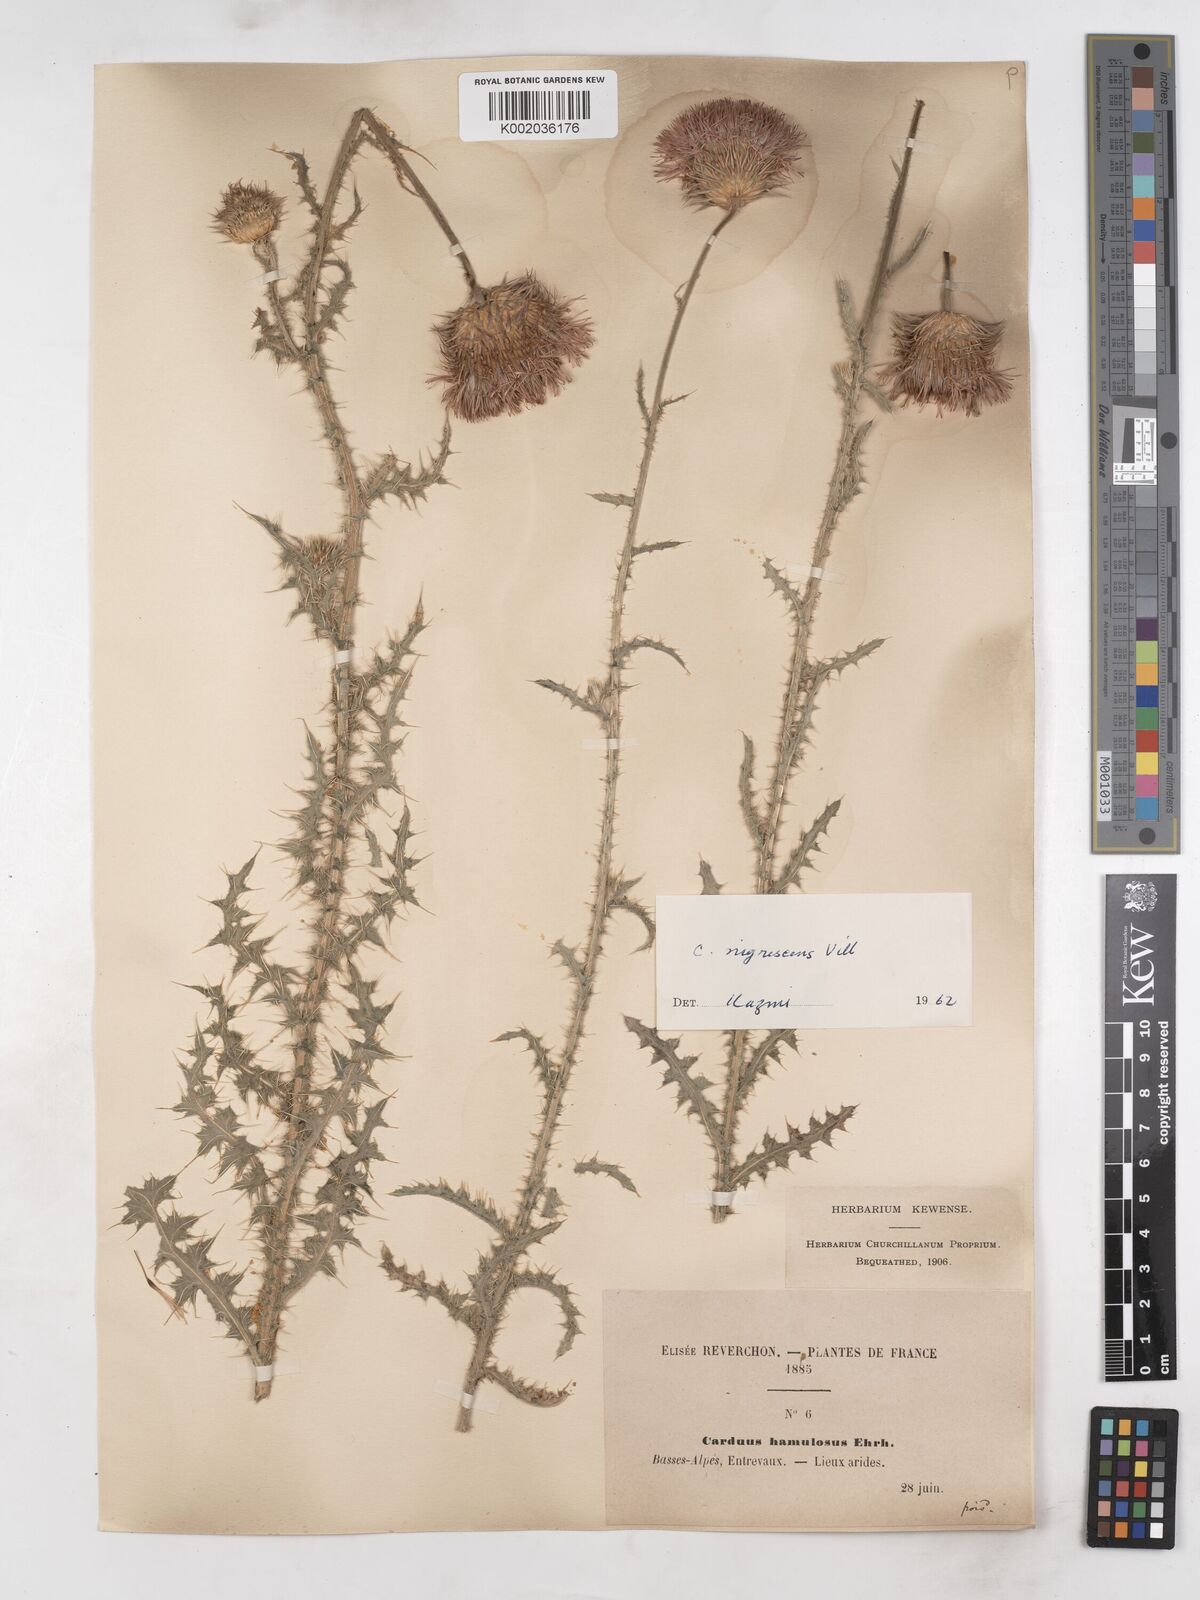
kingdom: Plantae
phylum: Tracheophyta
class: Magnoliopsida
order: Asterales
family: Asteraceae
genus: Carduus
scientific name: Carduus nigrescens
